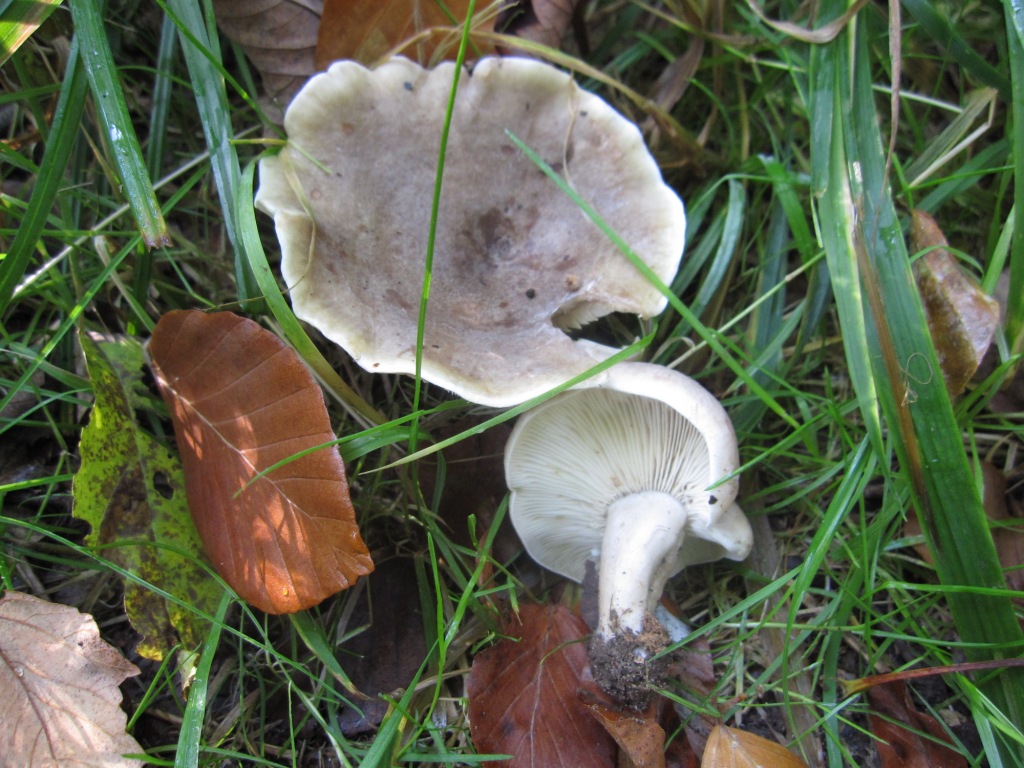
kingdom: Fungi
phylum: Basidiomycota
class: Agaricomycetes
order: Russulales
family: Russulaceae
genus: Lactarius
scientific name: Lactarius fluens
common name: lysrandet mælkehat
